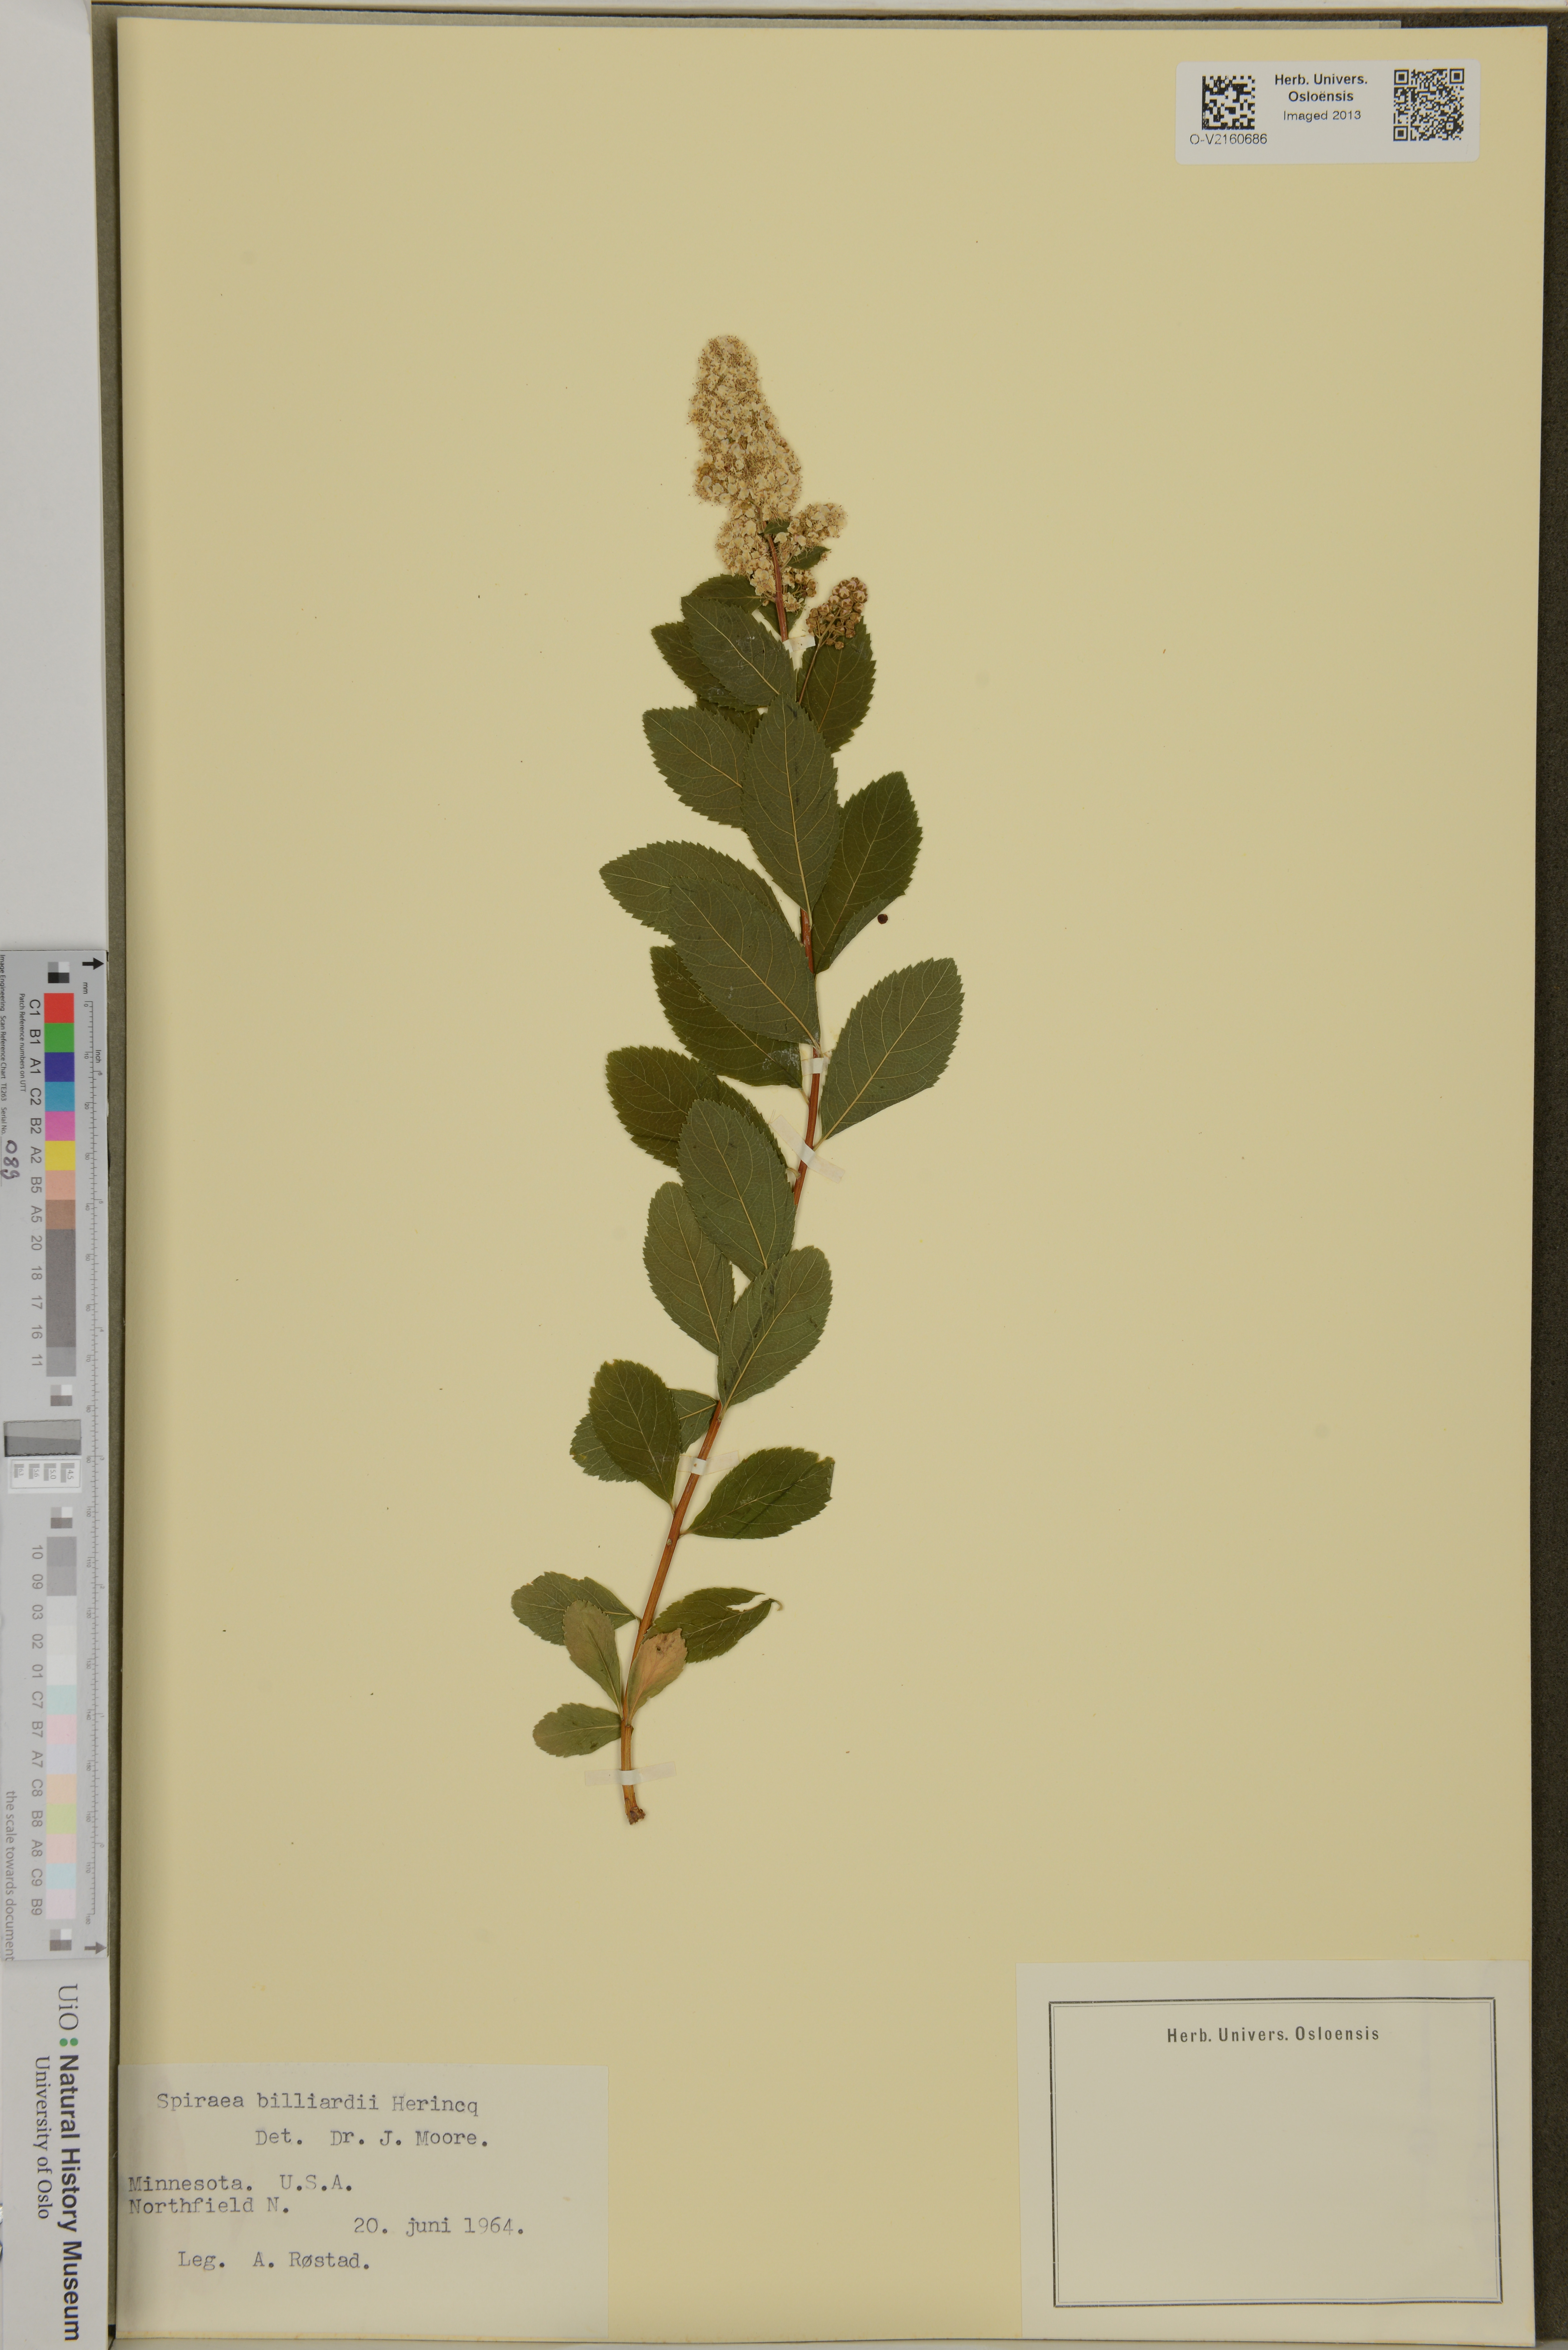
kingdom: Plantae
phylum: Tracheophyta
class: Magnoliopsida
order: Rosales
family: Rosaceae
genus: Spiraea
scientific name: Spiraea billardii
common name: Billard's bridewort
